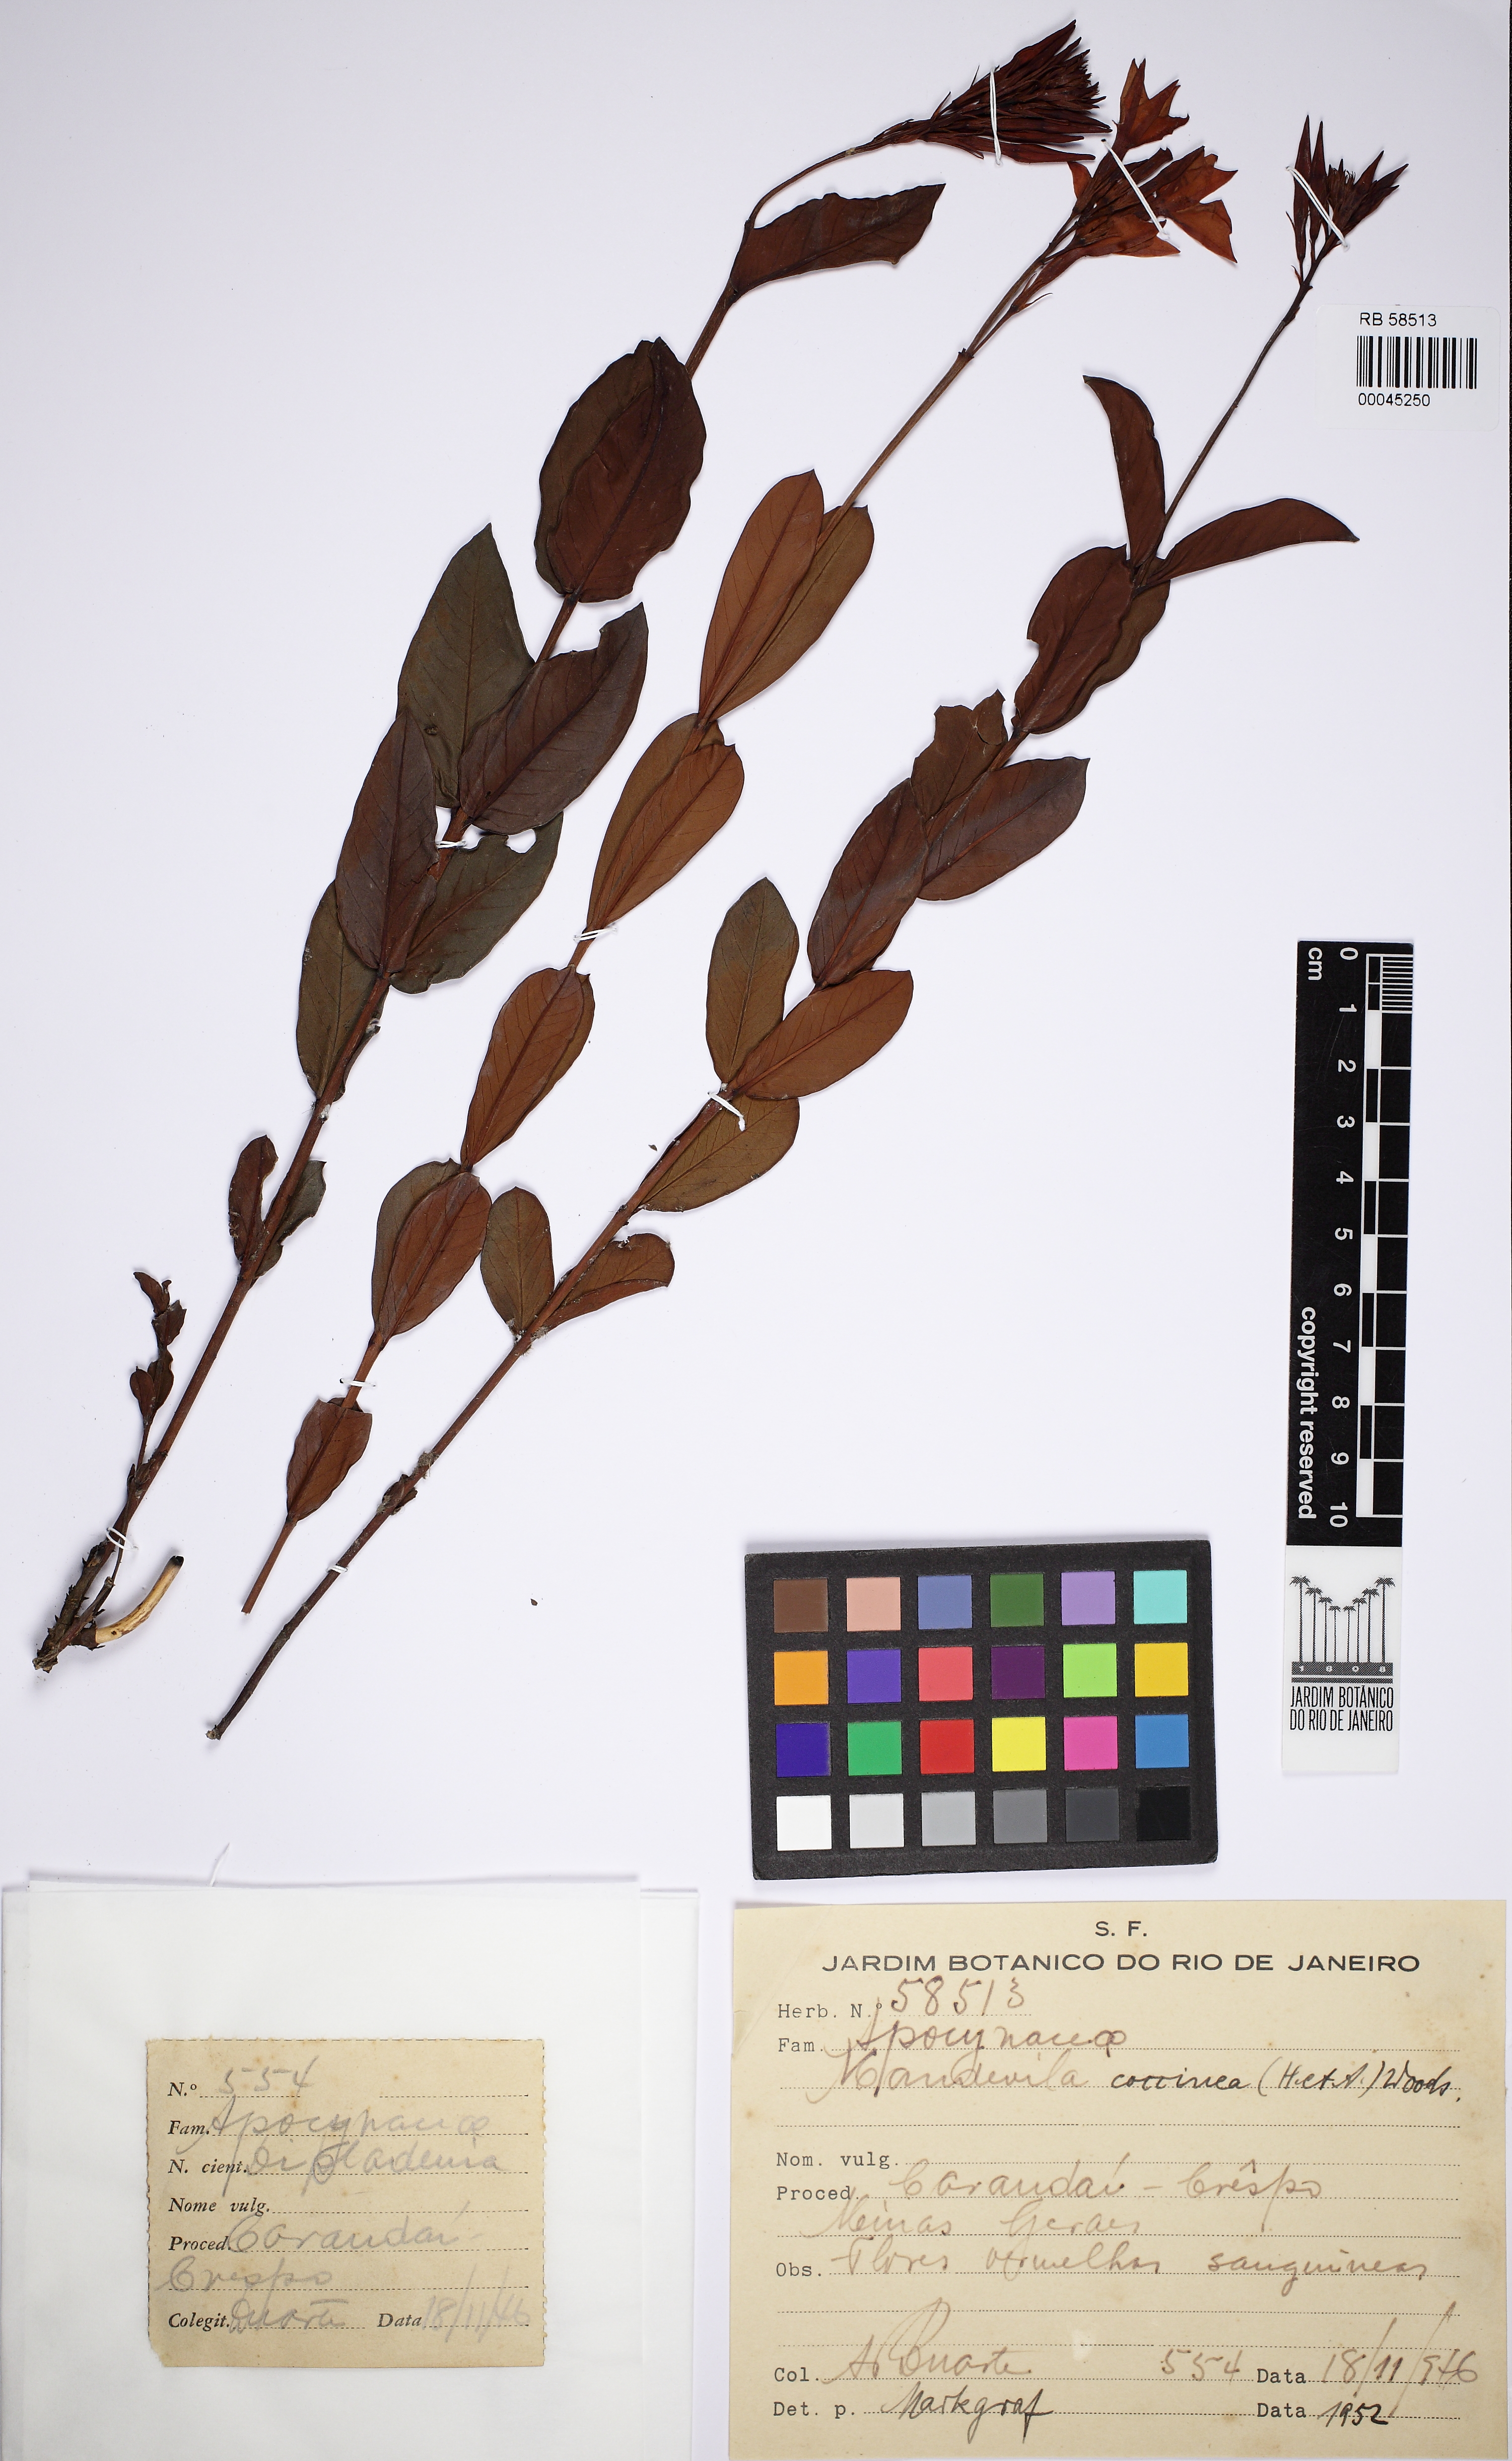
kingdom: Plantae
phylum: Tracheophyta
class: Magnoliopsida
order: Gentianales
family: Apocynaceae
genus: Mandevilla
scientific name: Mandevilla coccinea
